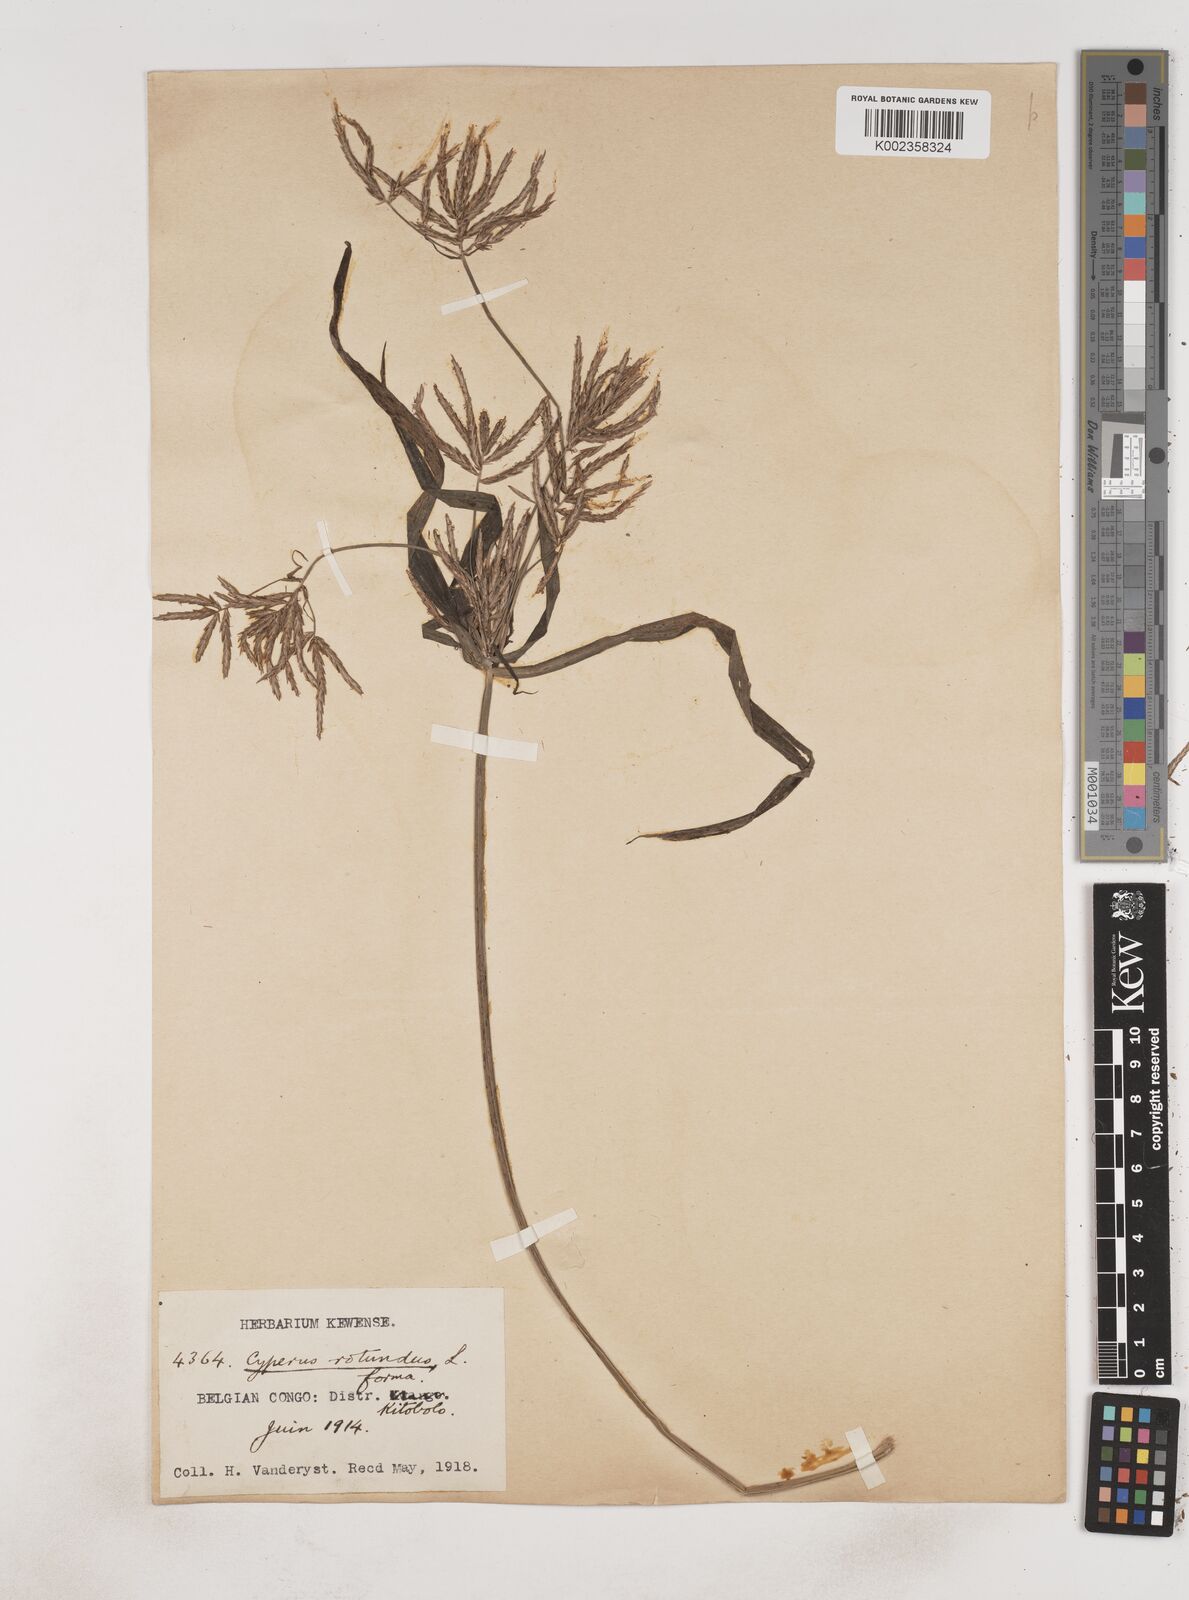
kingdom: Plantae
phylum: Tracheophyta
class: Liliopsida
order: Poales
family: Cyperaceae
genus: Cyperus
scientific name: Cyperus tuberosus
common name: Nut grass
